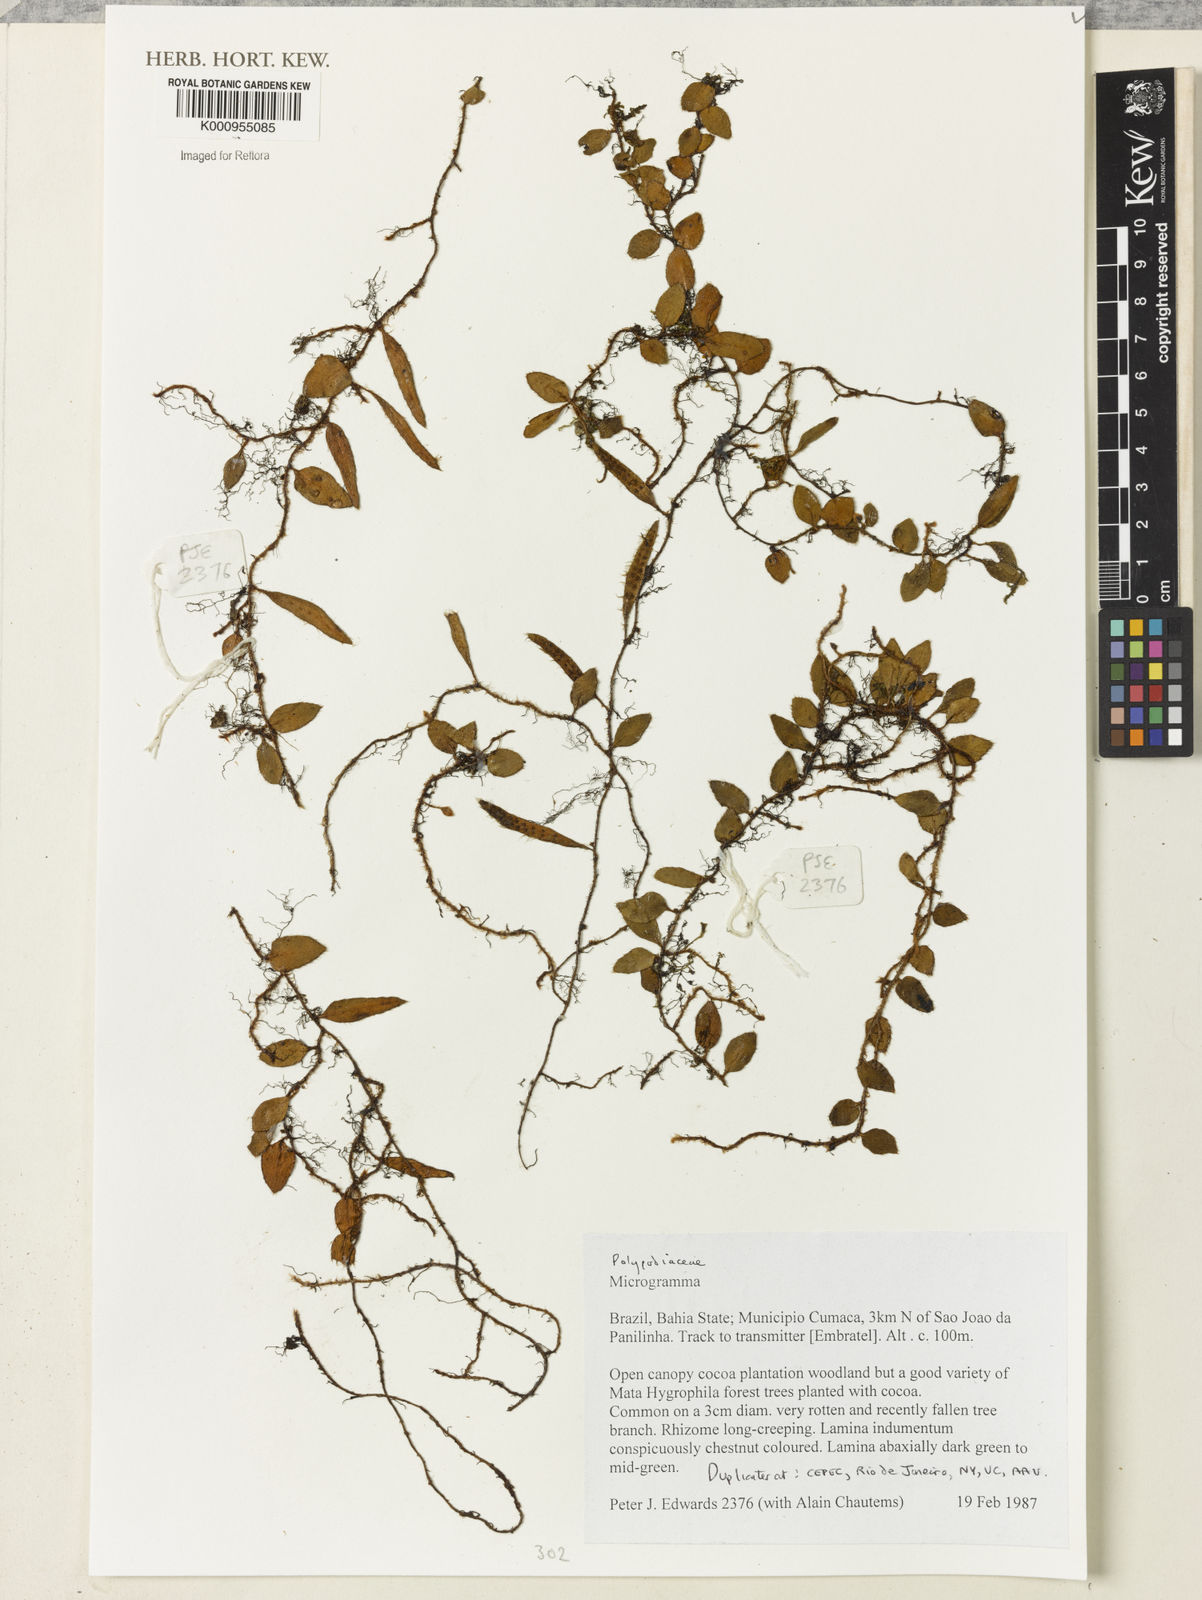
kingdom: Plantae
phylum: Tracheophyta
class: Polypodiopsida
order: Polypodiales
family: Polypodiaceae
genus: Microgramma
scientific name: Microgramma
